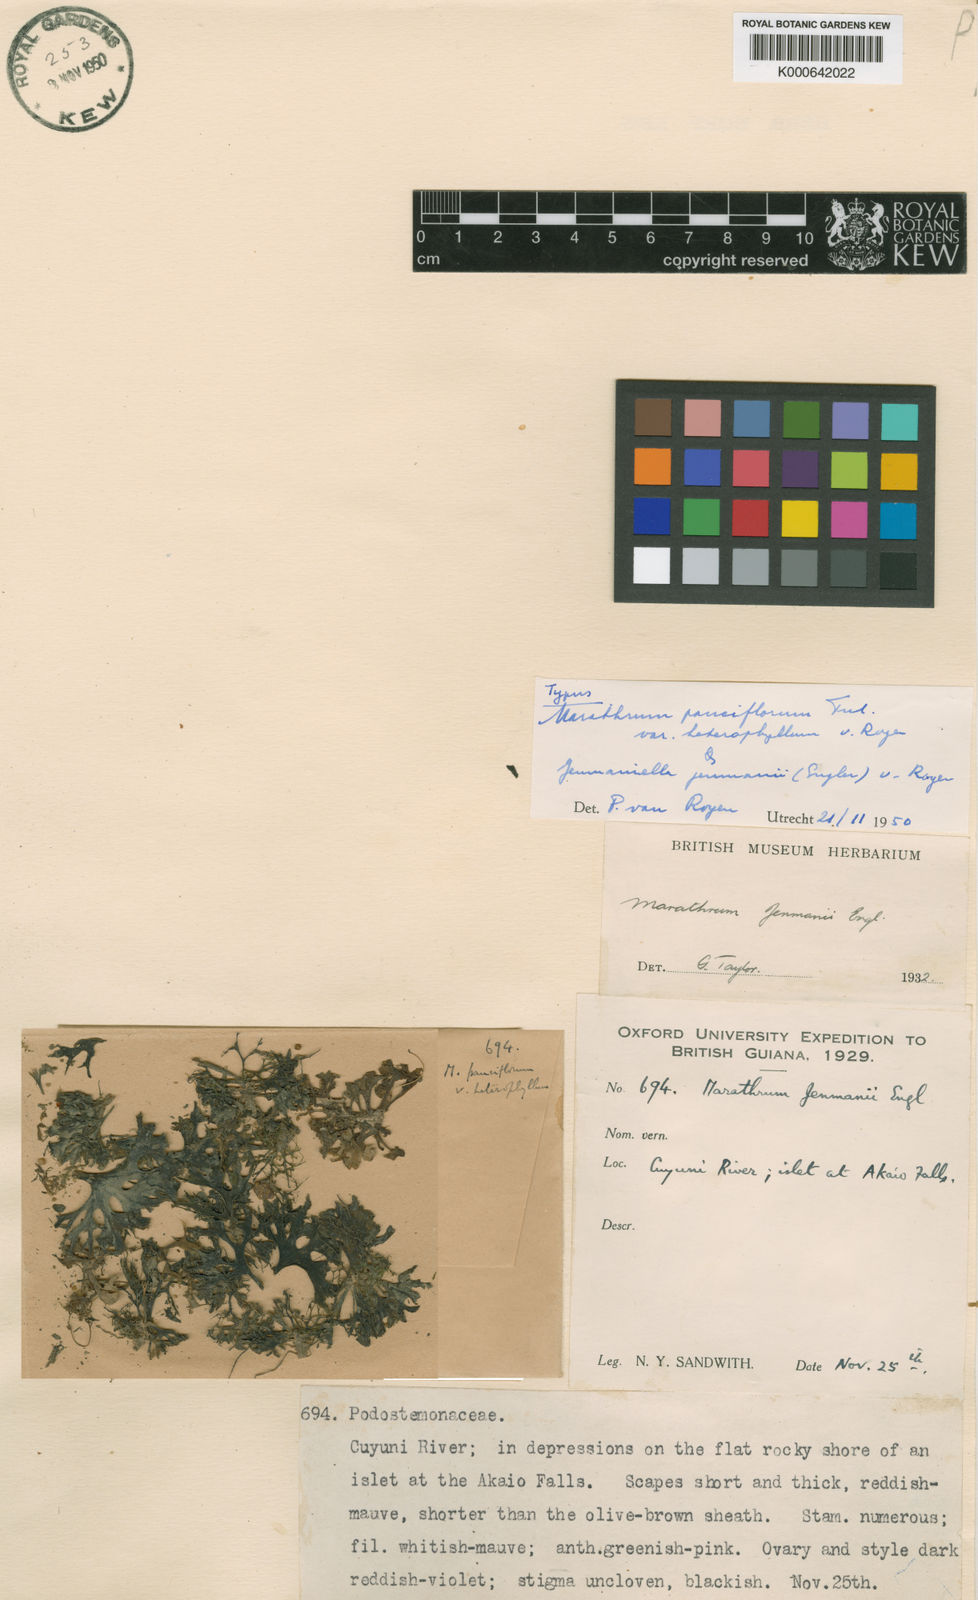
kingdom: Plantae
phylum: Tracheophyta
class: Magnoliopsida
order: Malpighiales
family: Podostemaceae
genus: Marathrum
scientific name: Marathrum pauciflorum
